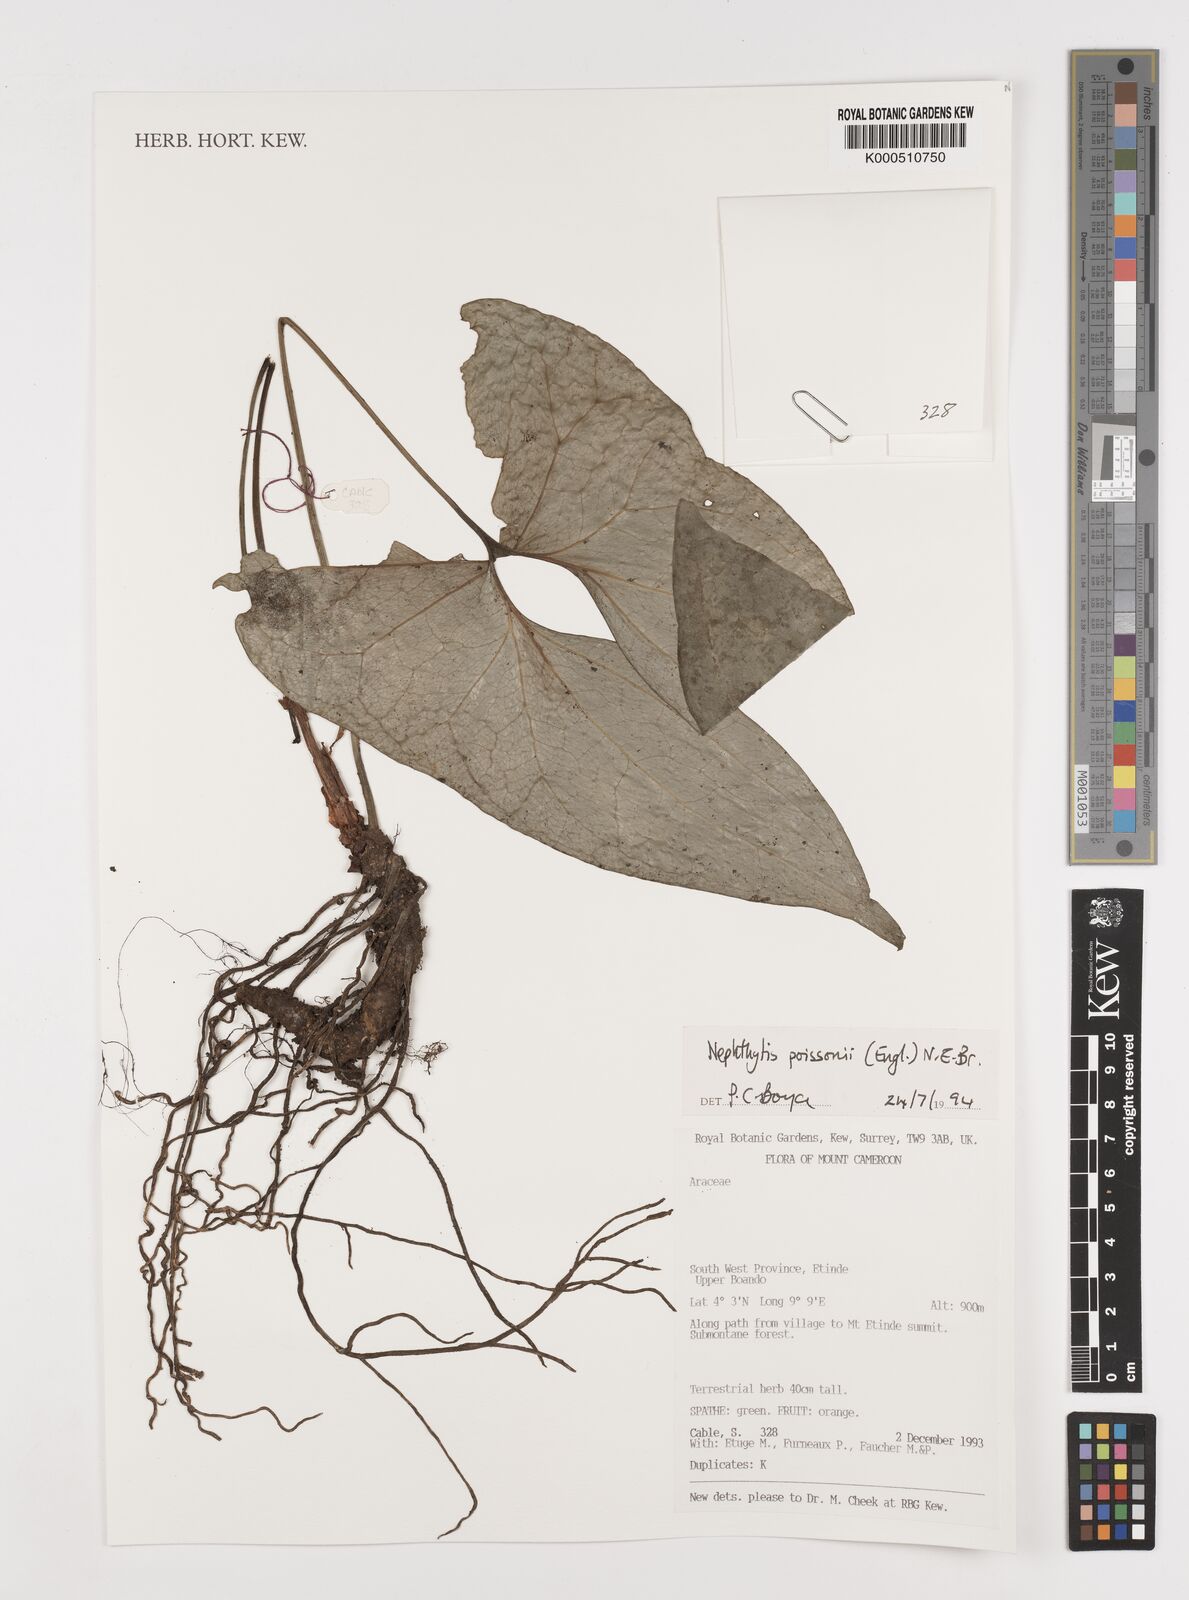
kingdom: Plantae
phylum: Tracheophyta
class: Liliopsida
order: Alismatales
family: Araceae
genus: Nephthytis
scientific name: Nephthytis poissonii
